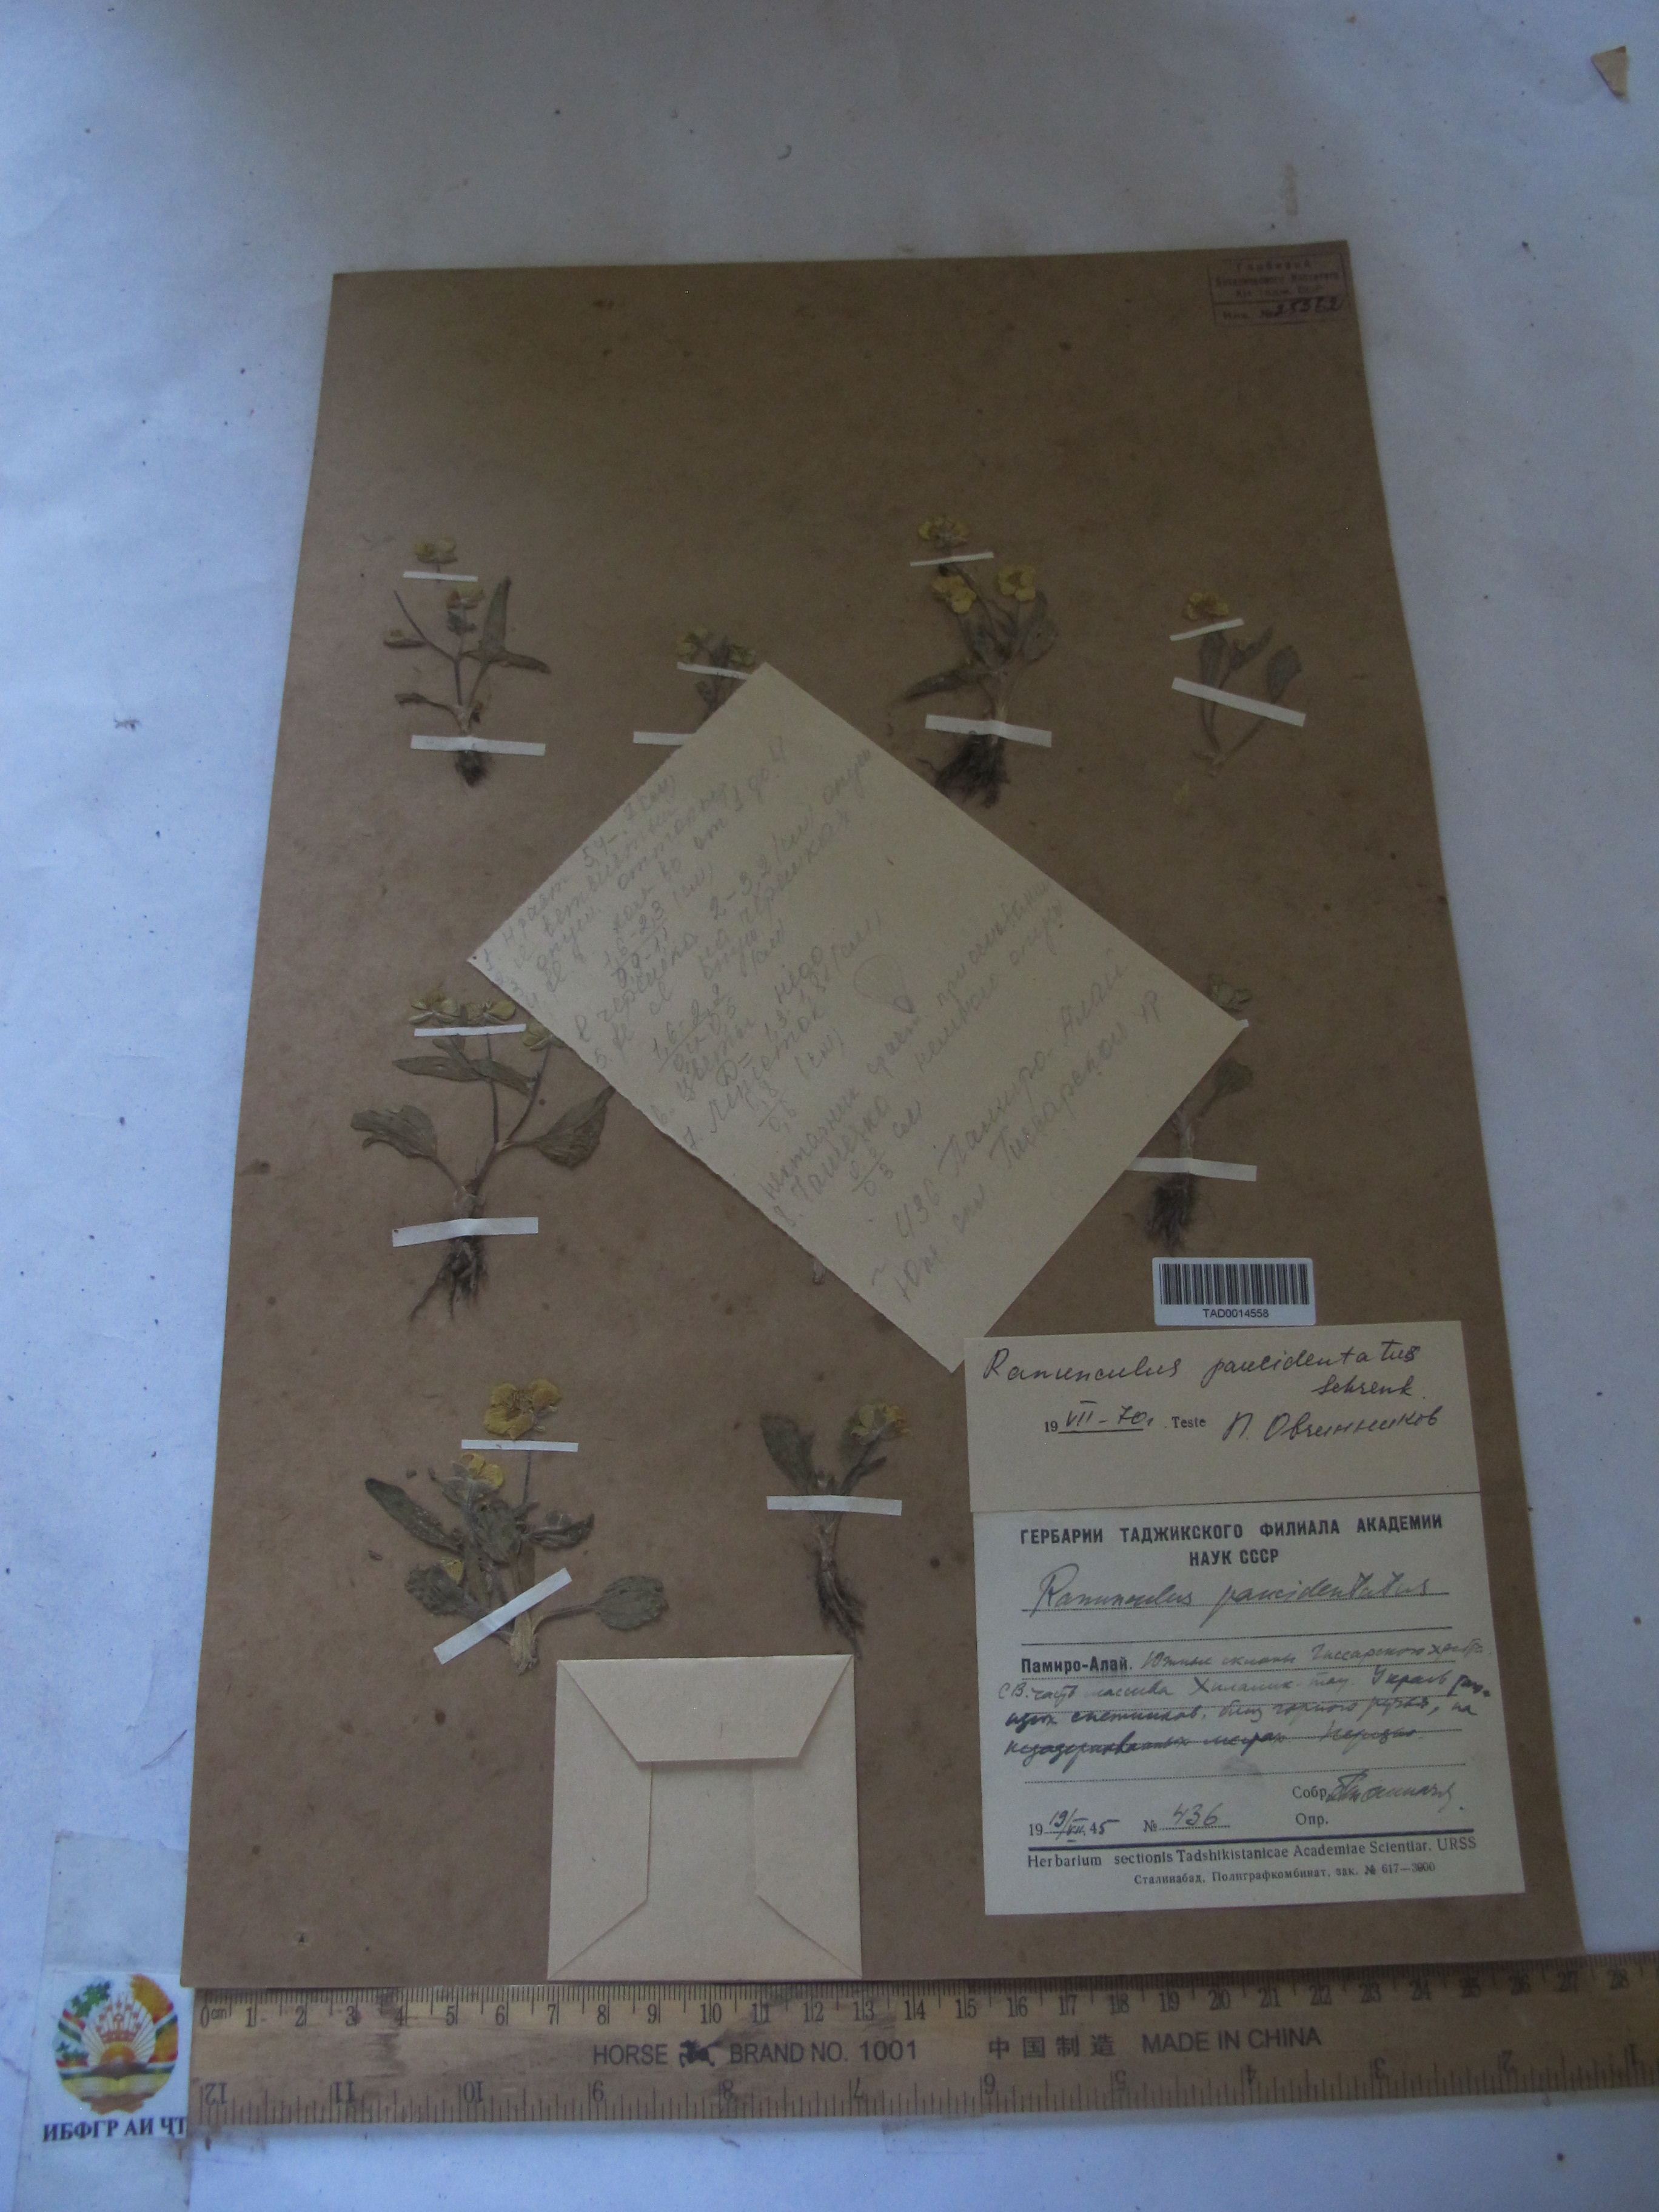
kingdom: Plantae
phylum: Tracheophyta
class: Magnoliopsida
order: Ranunculales
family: Ranunculaceae
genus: Ranunculus
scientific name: Ranunculus
